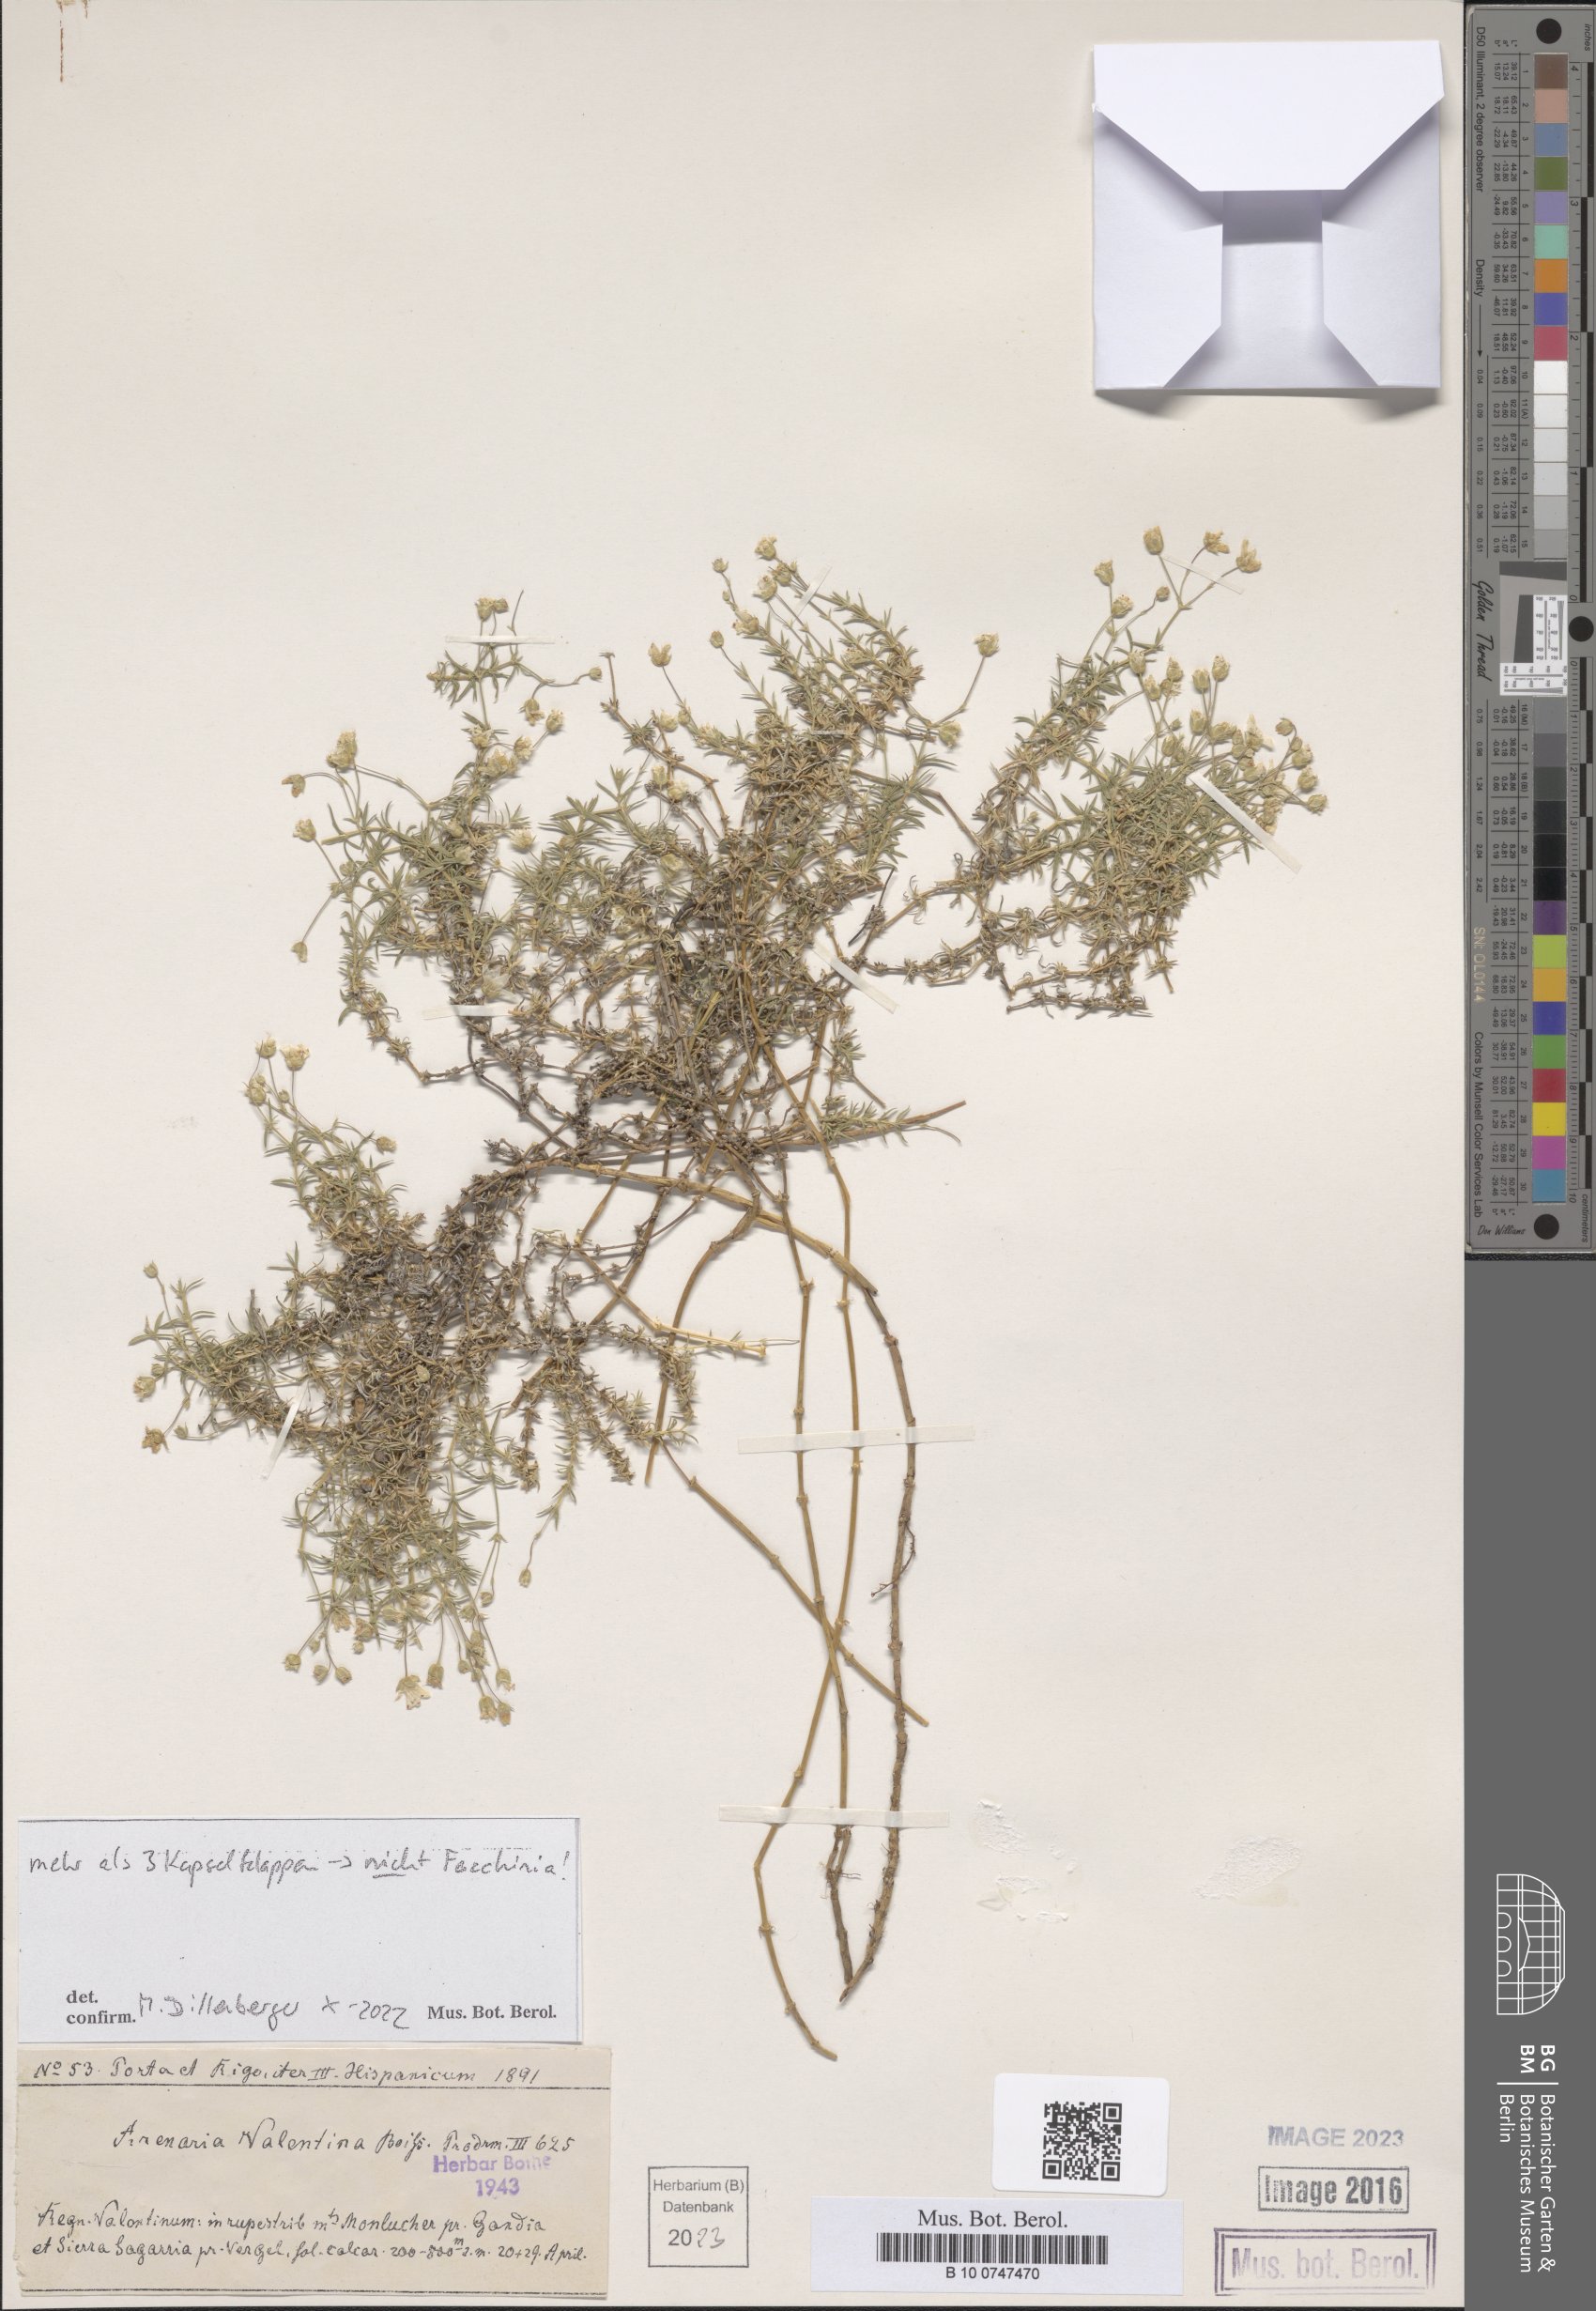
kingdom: Plantae
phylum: Tracheophyta
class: Magnoliopsida
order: Caryophyllales
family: Caryophyllaceae
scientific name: Caryophyllaceae
